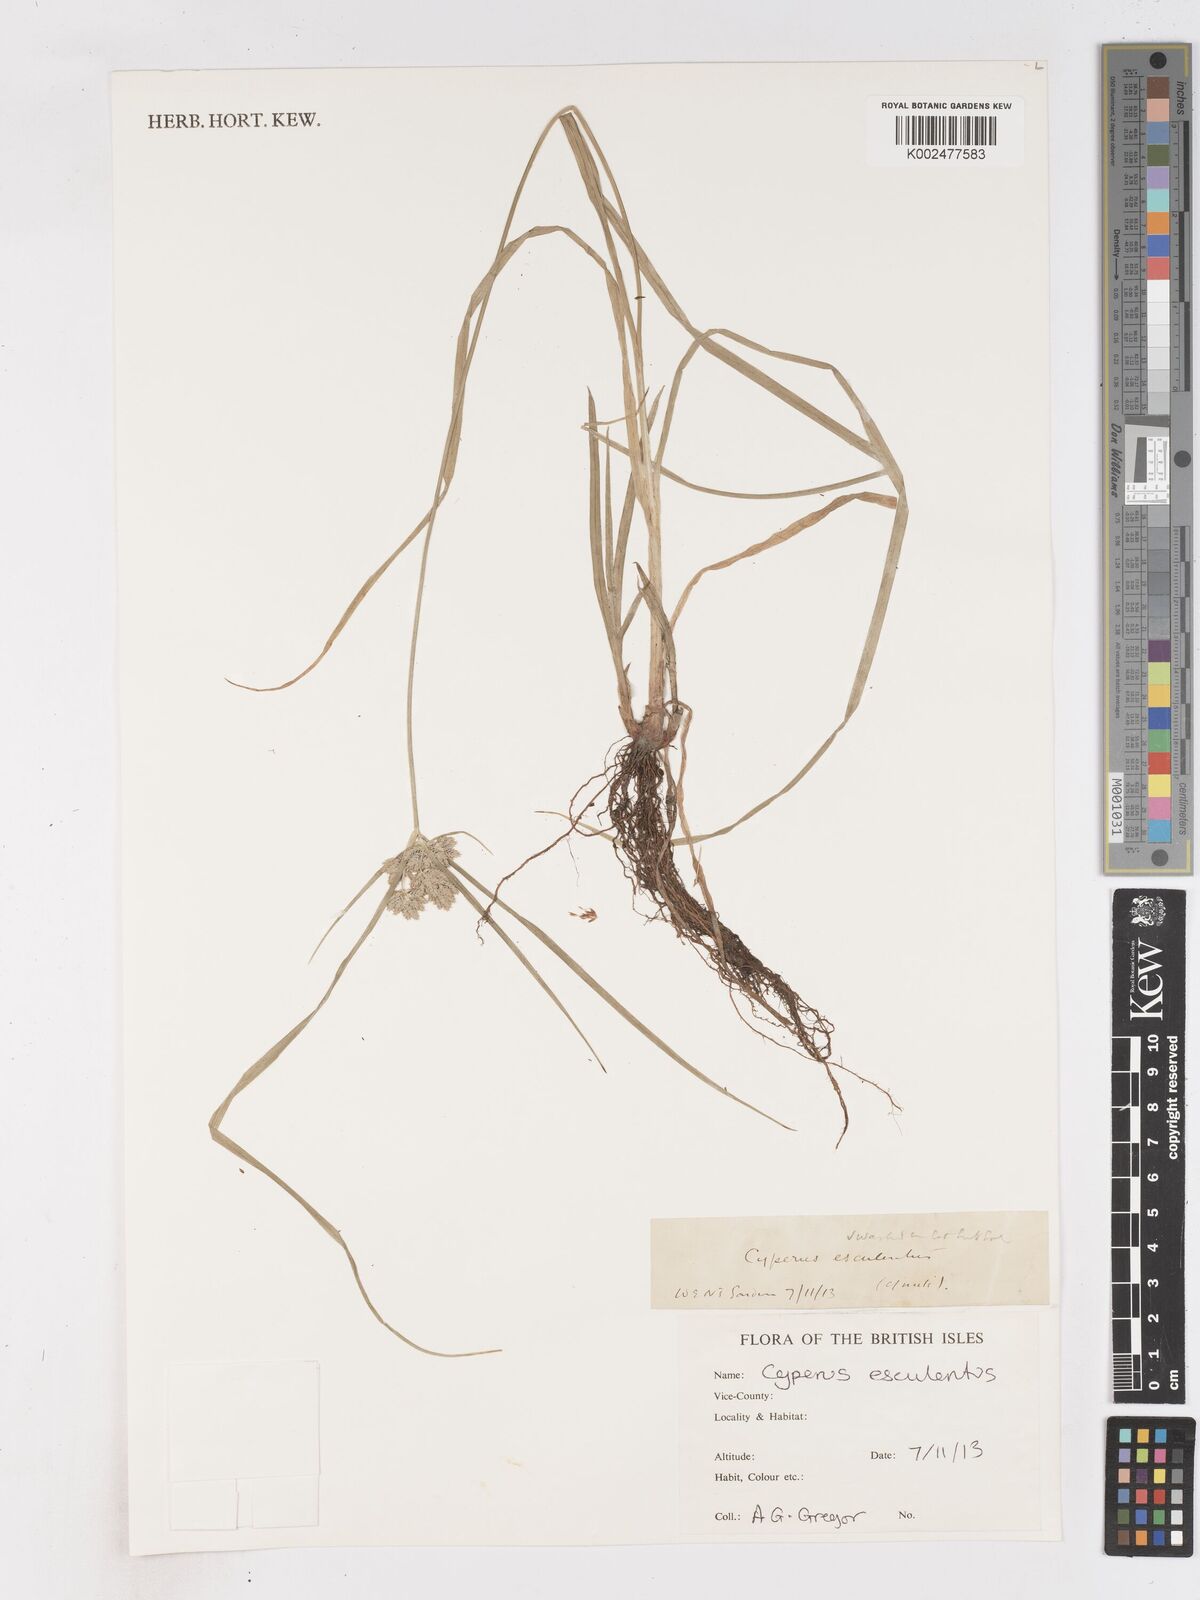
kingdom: Plantae
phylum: Tracheophyta
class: Liliopsida
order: Poales
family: Cyperaceae
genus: Cyperus
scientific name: Cyperus lhotskyanus
